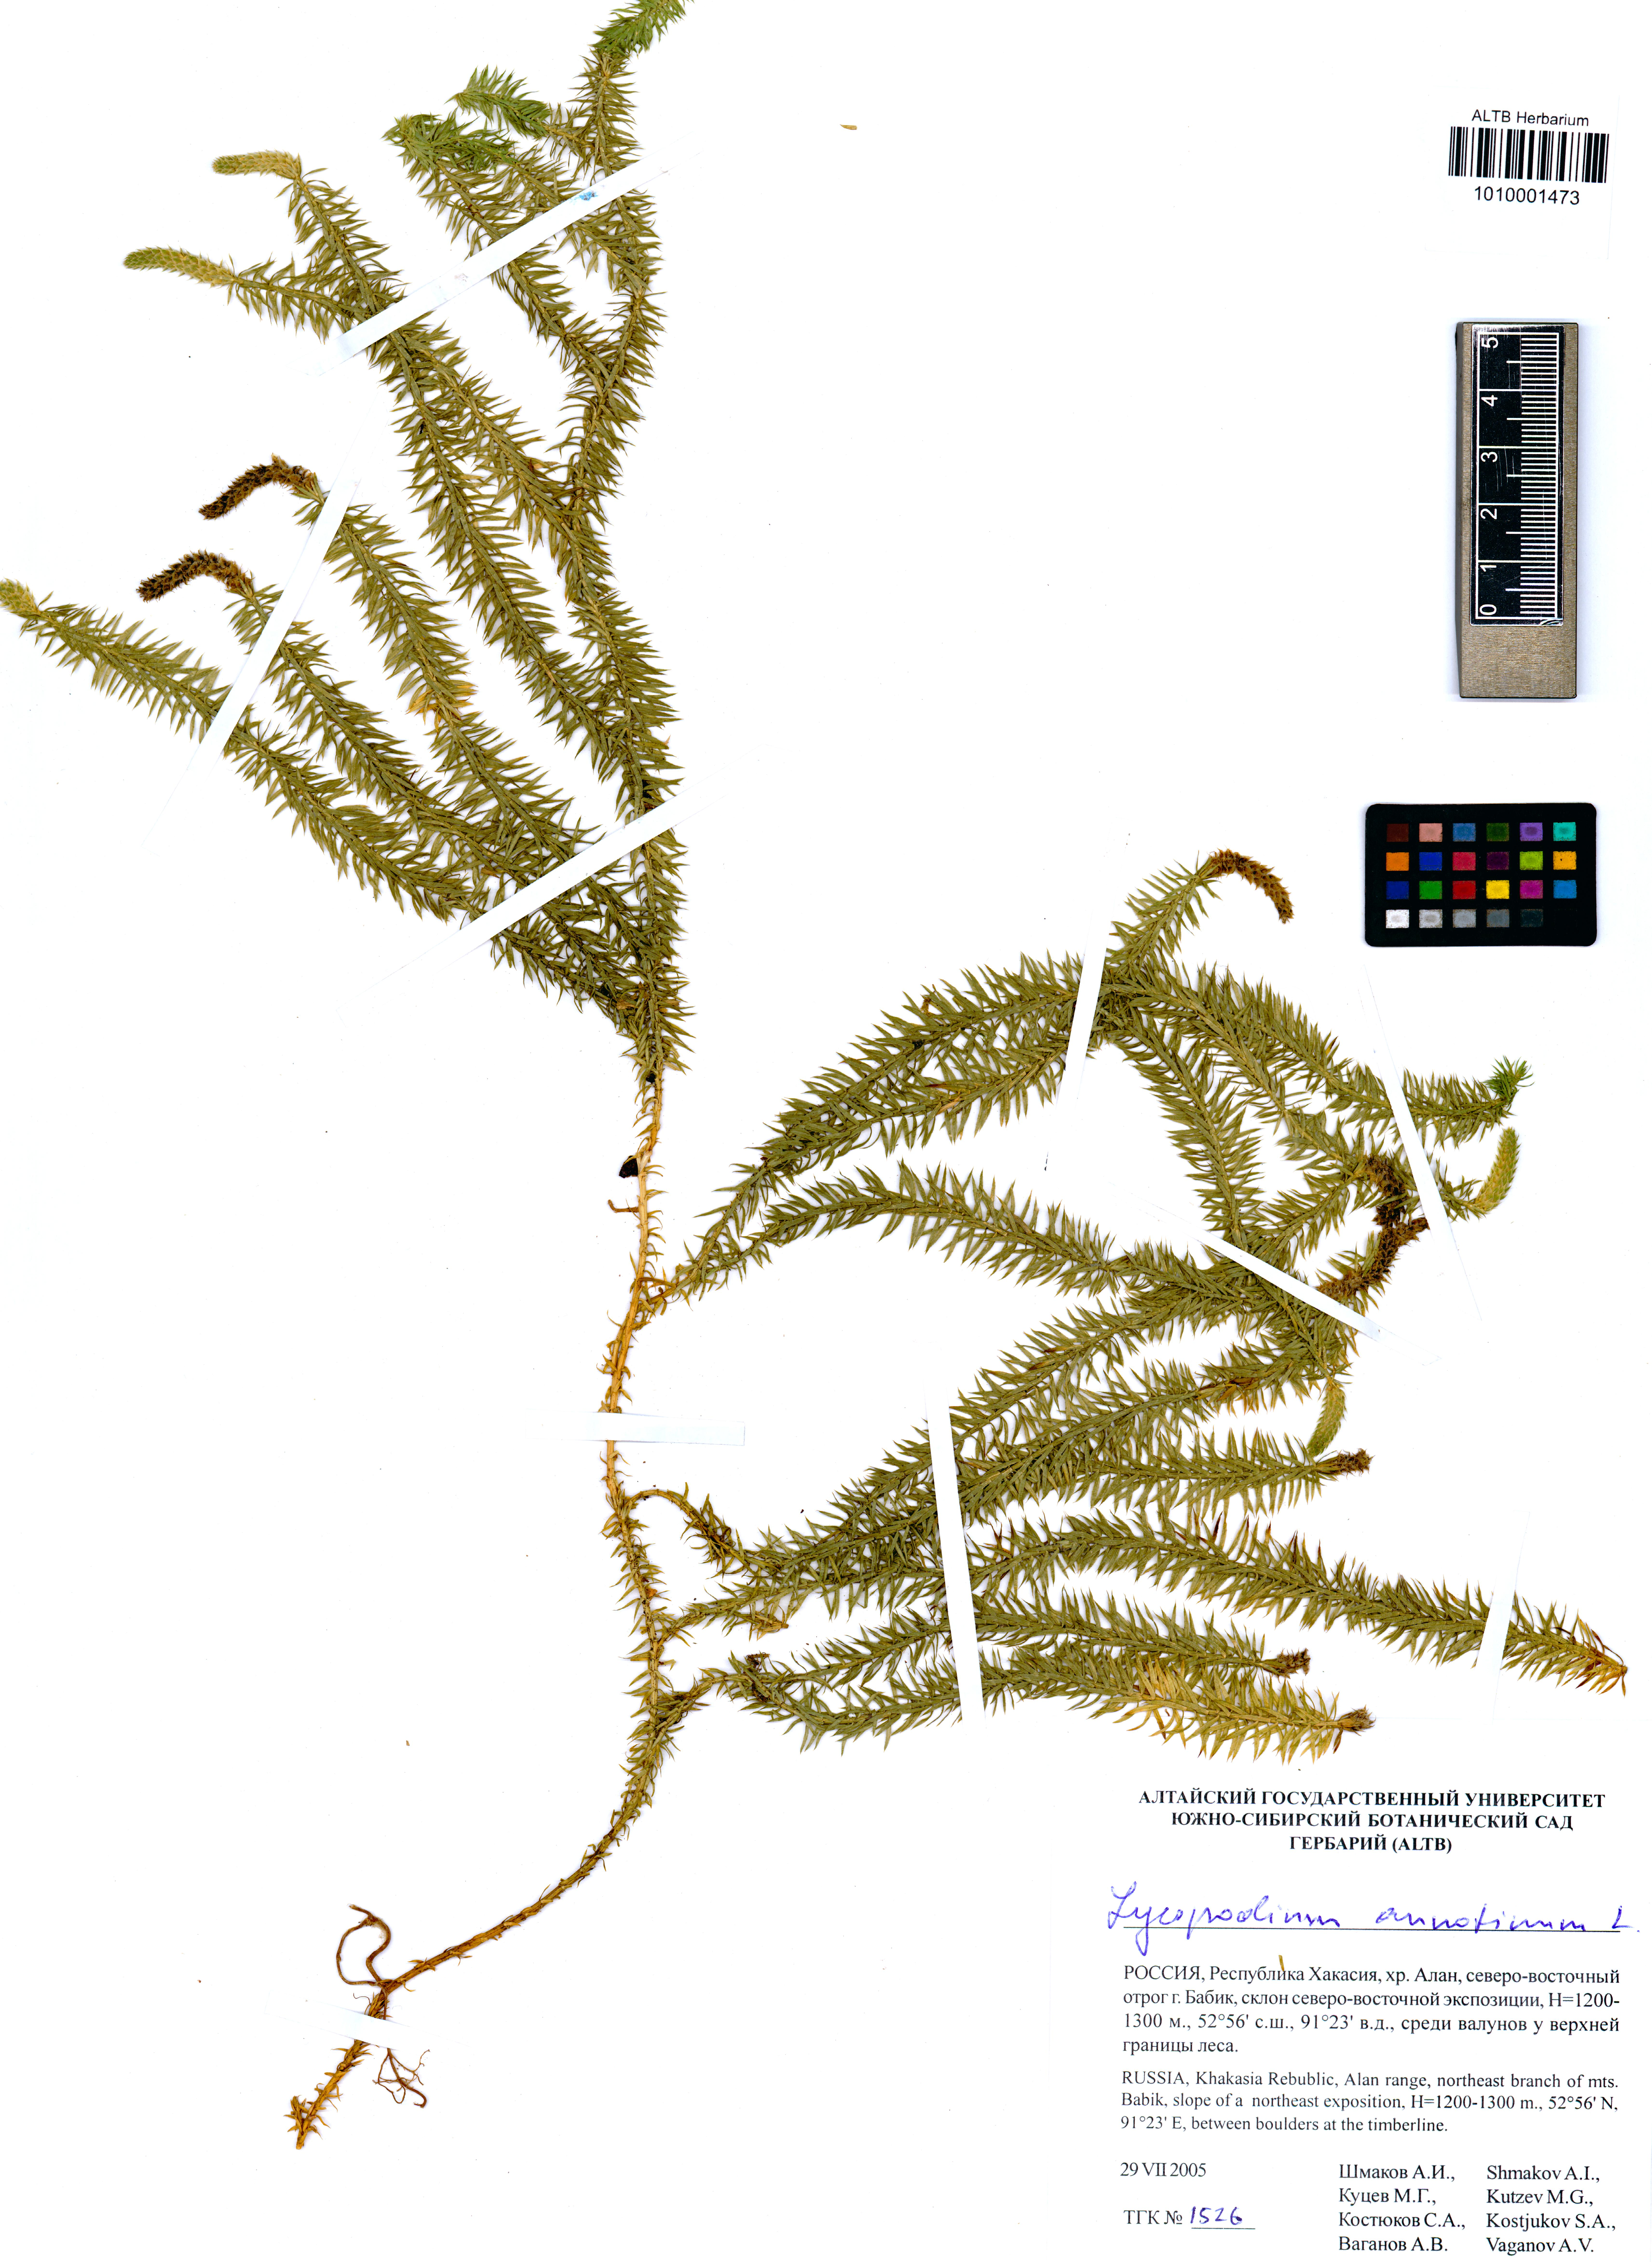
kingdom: Plantae
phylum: Tracheophyta
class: Lycopodiopsida
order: Lycopodiales
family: Lycopodiaceae
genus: Spinulum
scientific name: Spinulum annotinum
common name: Interrupted club-moss
